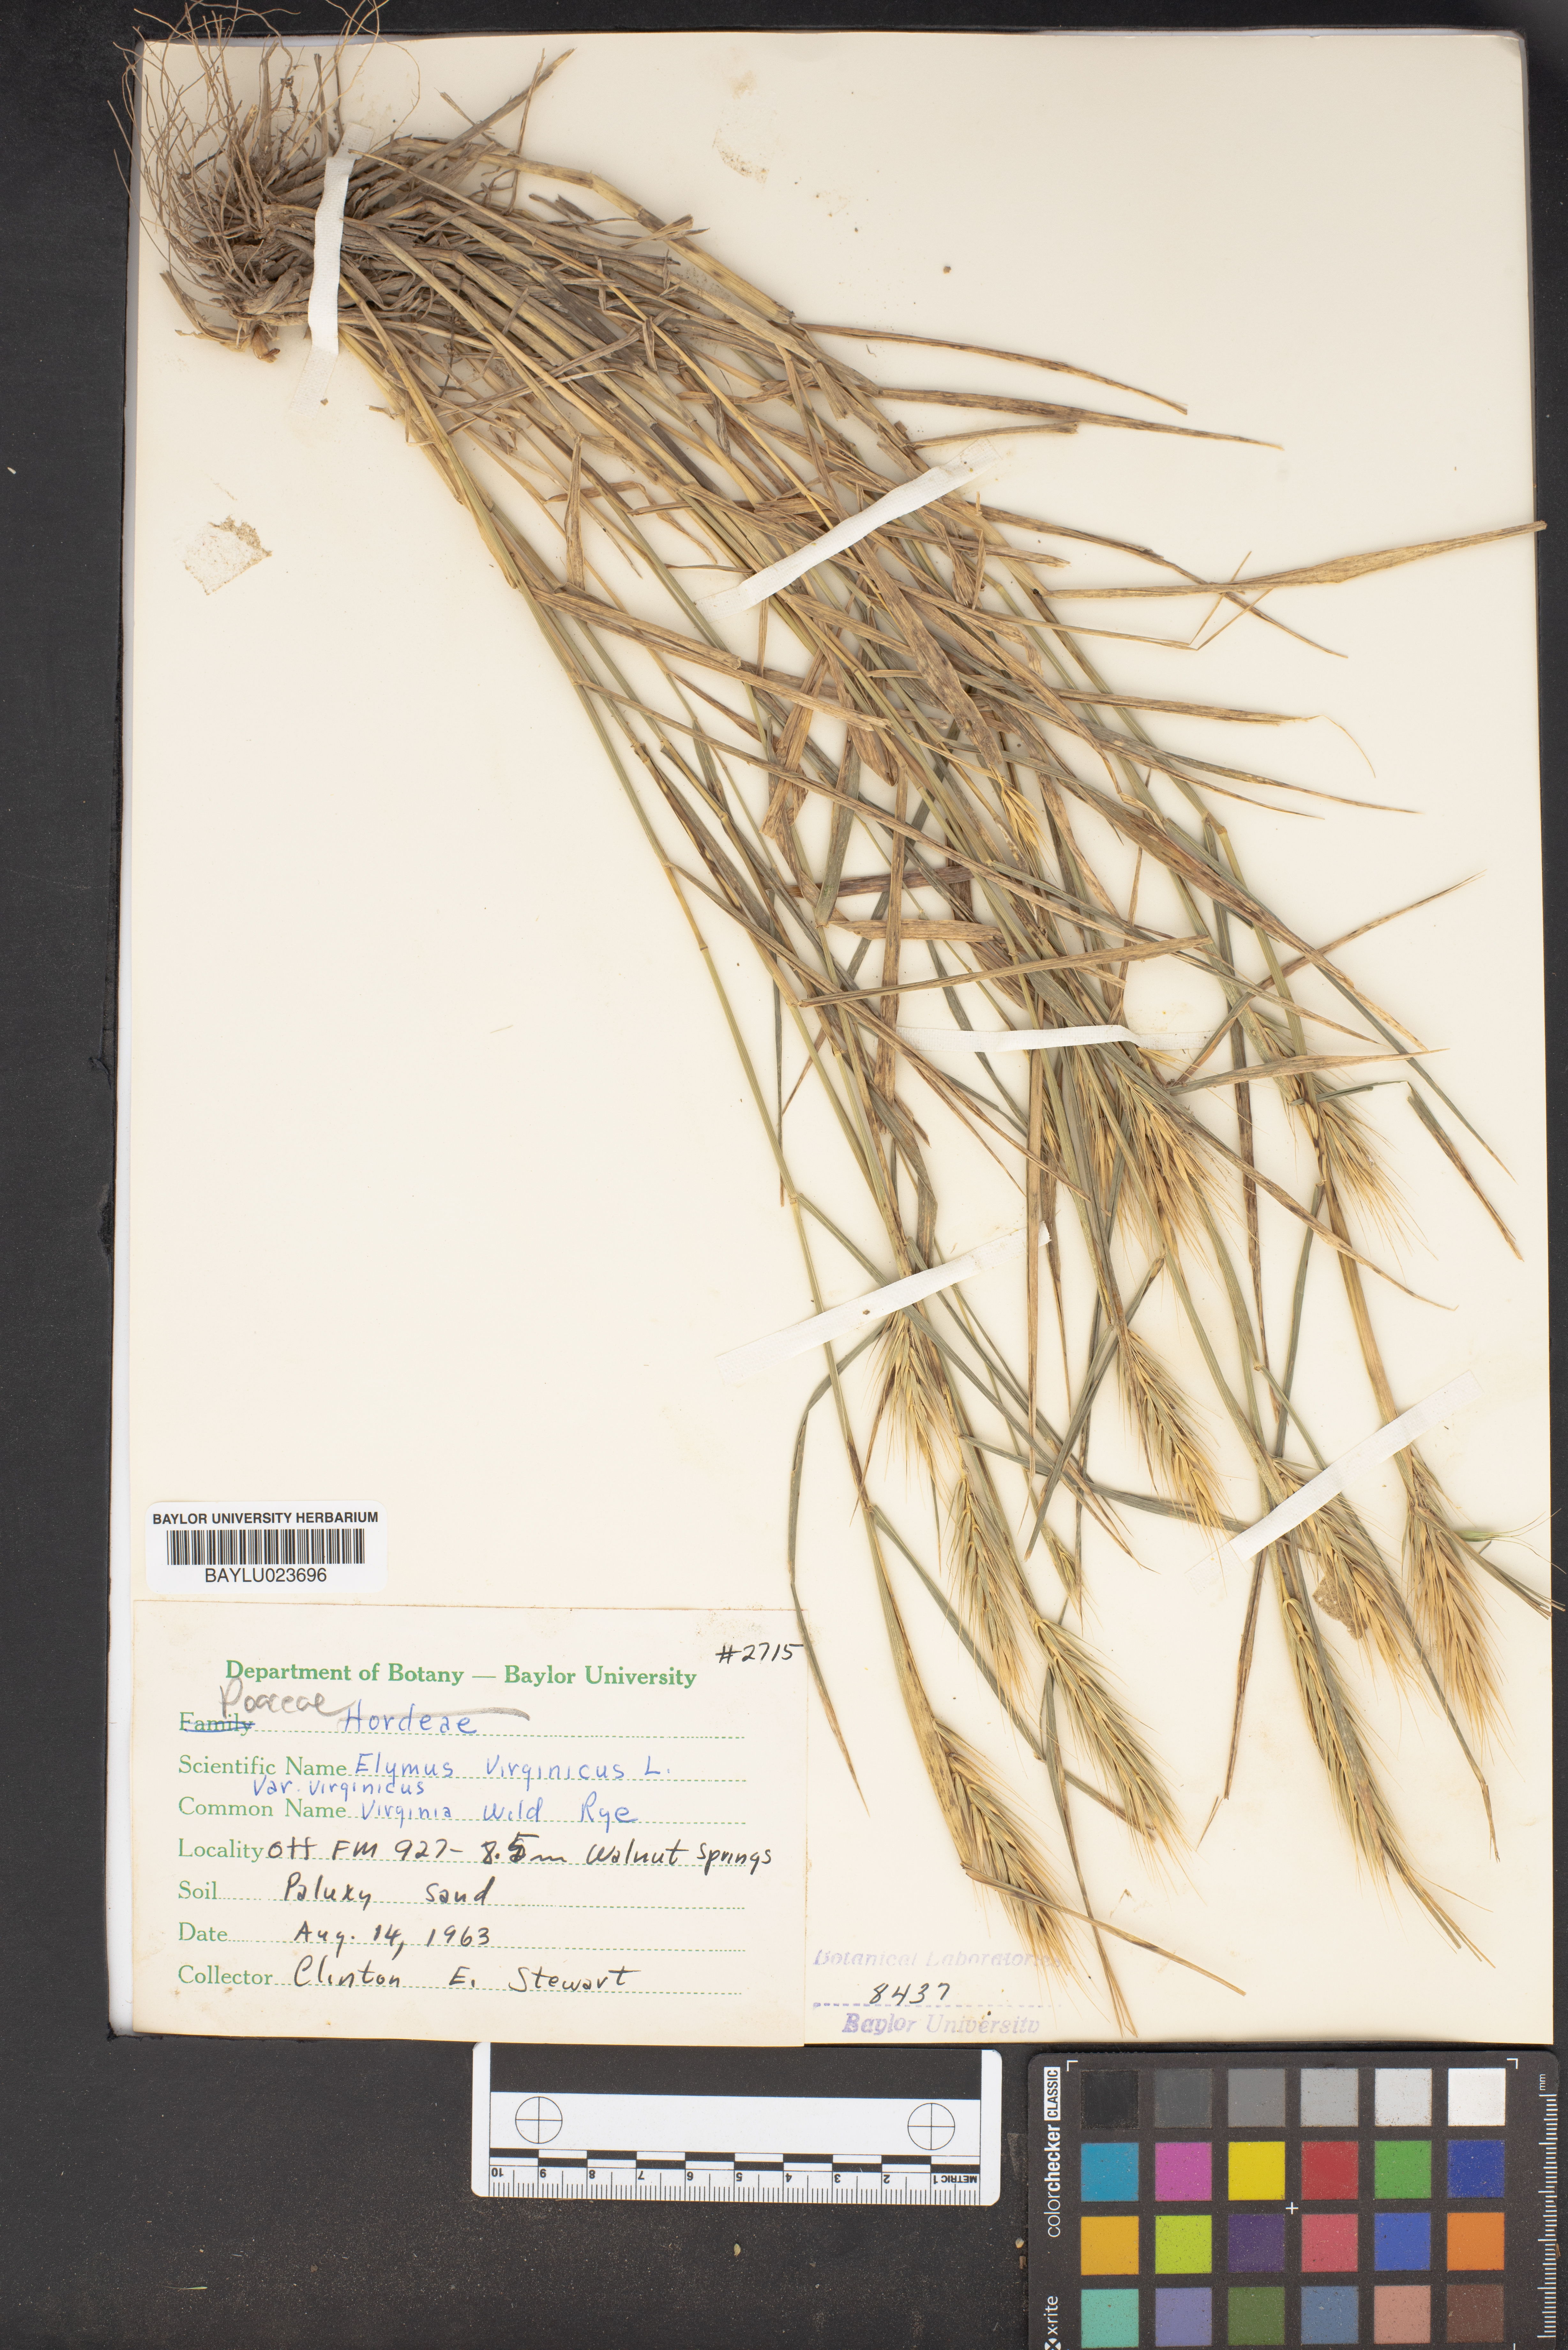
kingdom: Plantae
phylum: Tracheophyta
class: Liliopsida
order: Poales
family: Poaceae
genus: Elymus
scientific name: Elymus virginicus
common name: Common eastern wildrye
